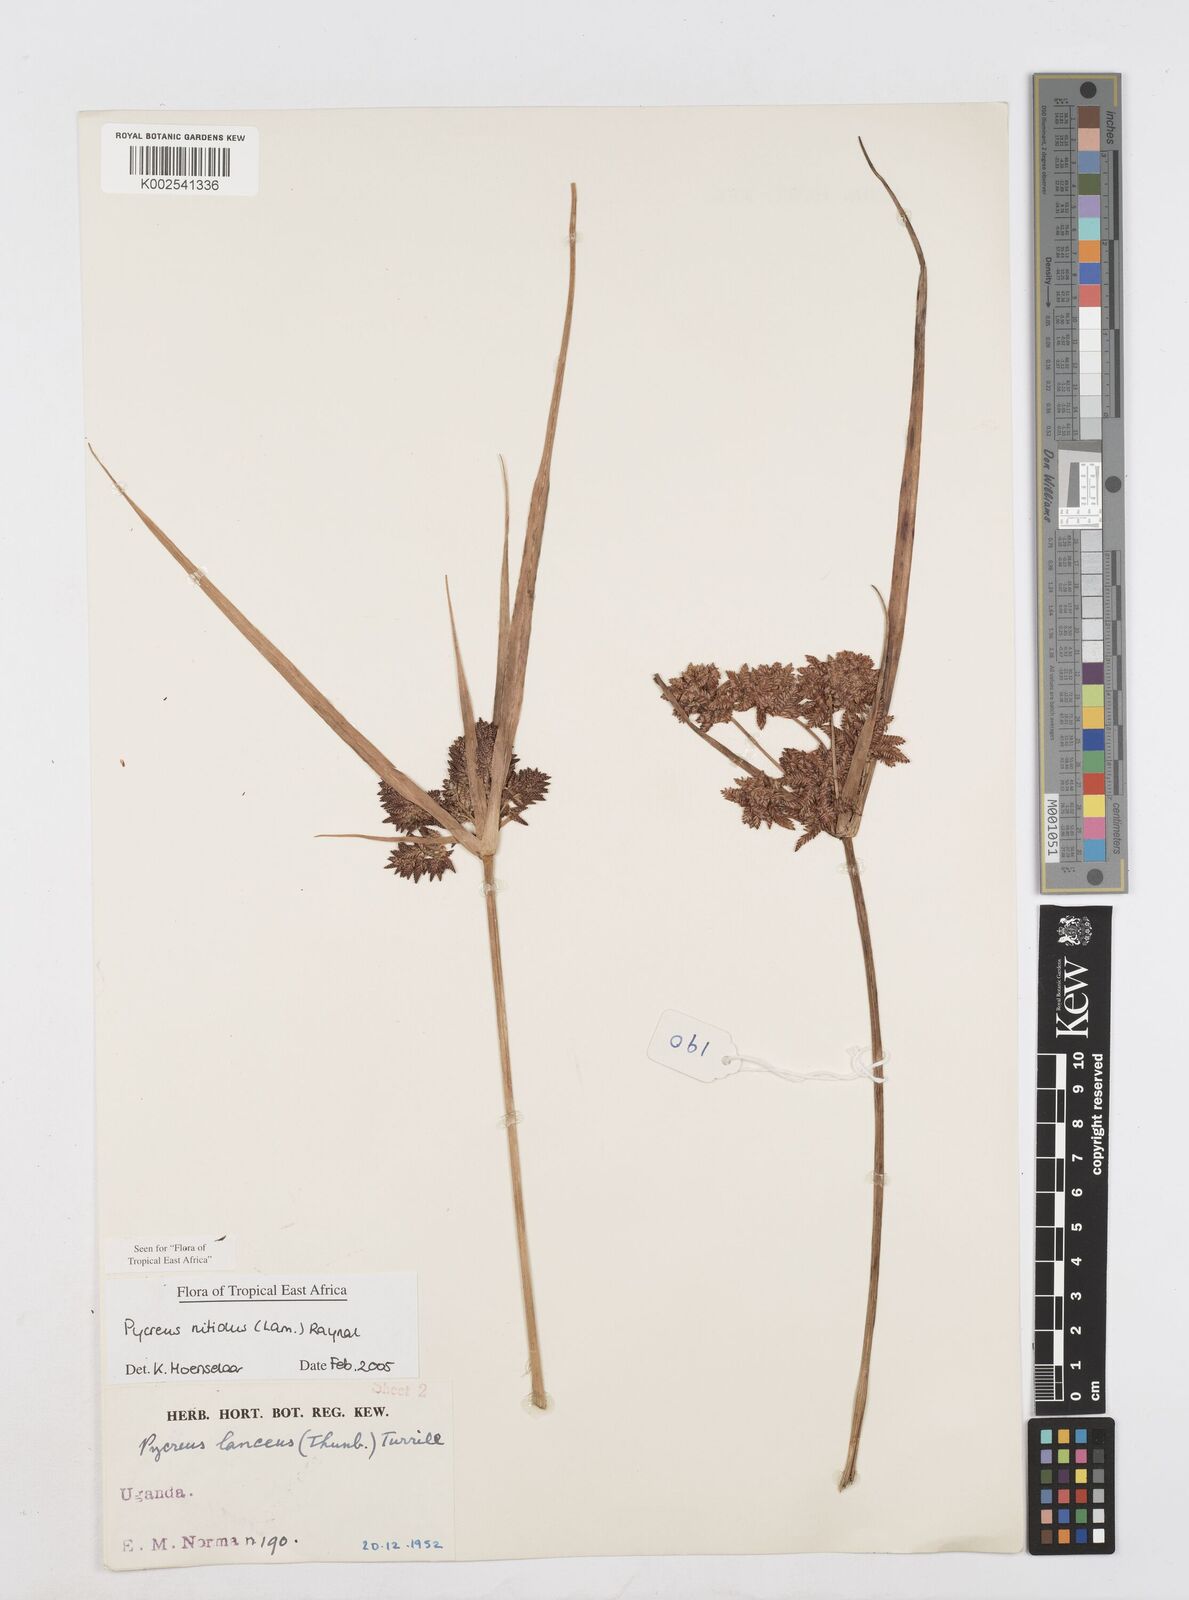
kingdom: Plantae
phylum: Tracheophyta
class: Liliopsida
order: Poales
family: Cyperaceae
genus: Cyperus
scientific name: Cyperus nitidus
